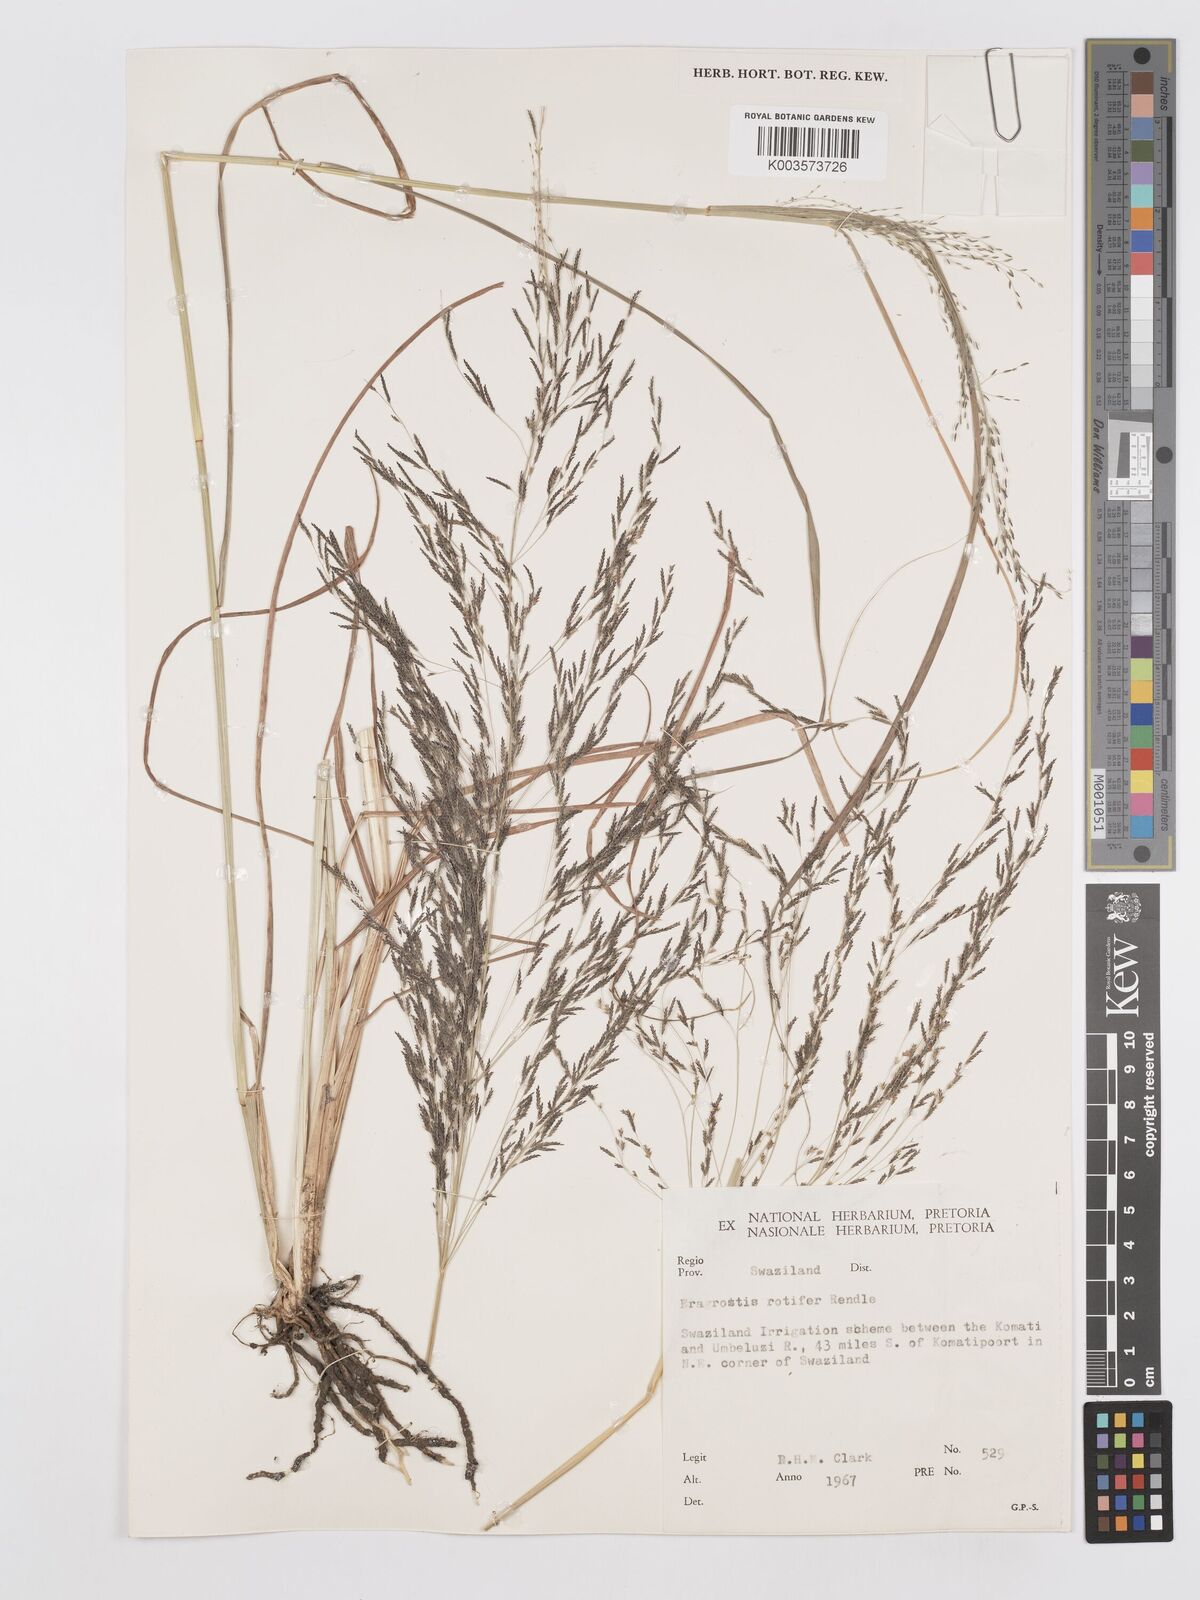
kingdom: Plantae
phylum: Tracheophyta
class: Liliopsida
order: Poales
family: Poaceae
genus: Eragrostis
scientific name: Eragrostis rotifer
